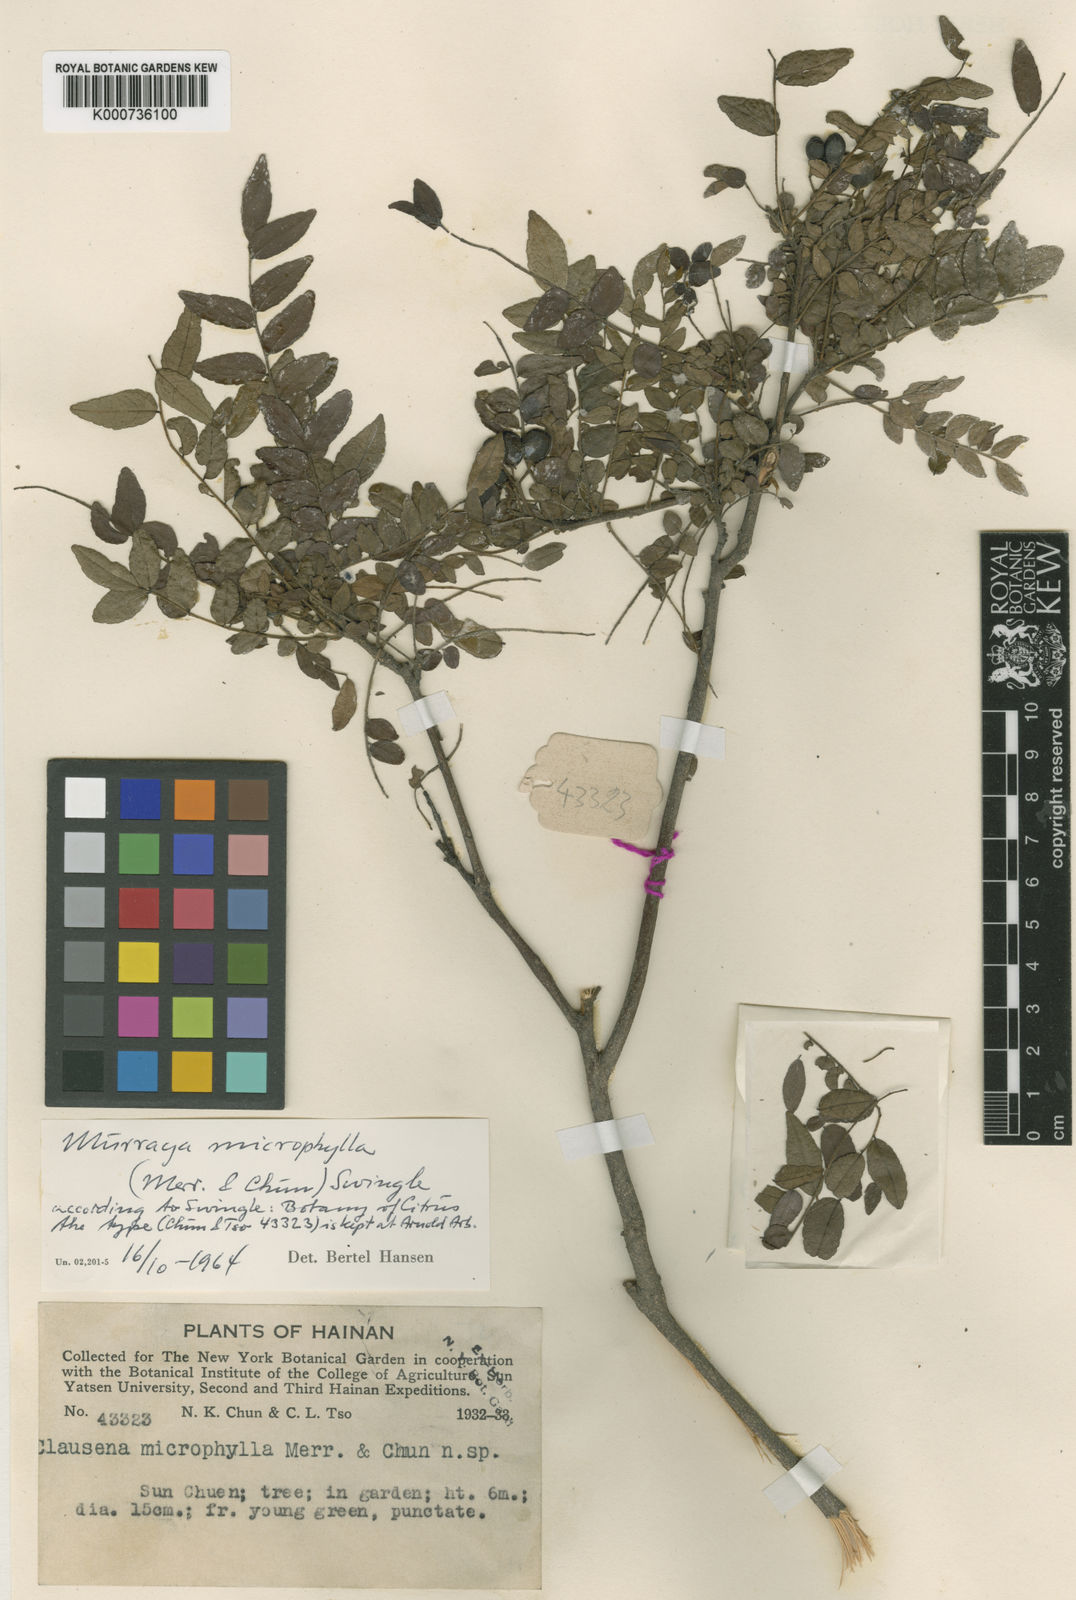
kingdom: Plantae
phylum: Tracheophyta
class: Magnoliopsida
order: Sapindales
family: Rutaceae
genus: Murraya
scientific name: Murraya microphylla
